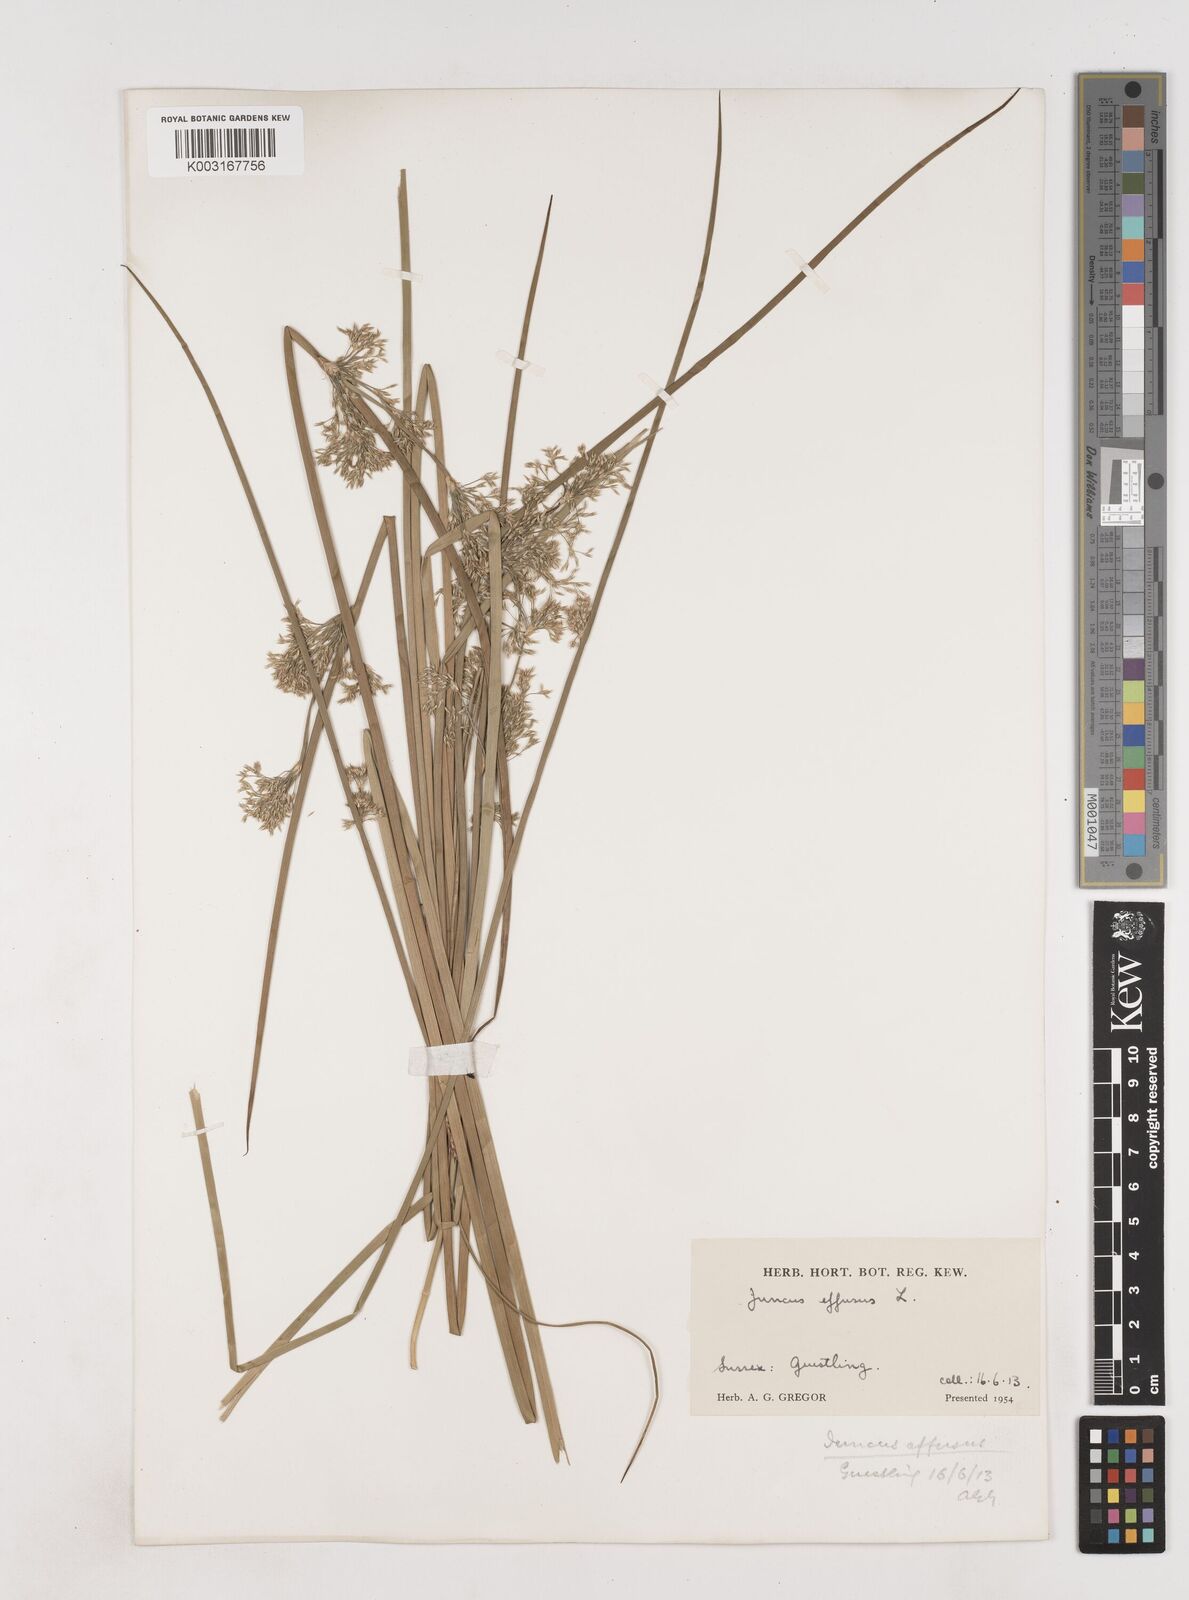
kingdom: Plantae
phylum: Tracheophyta
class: Liliopsida
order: Poales
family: Juncaceae
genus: Juncus
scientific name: Juncus effusus
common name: Soft rush
